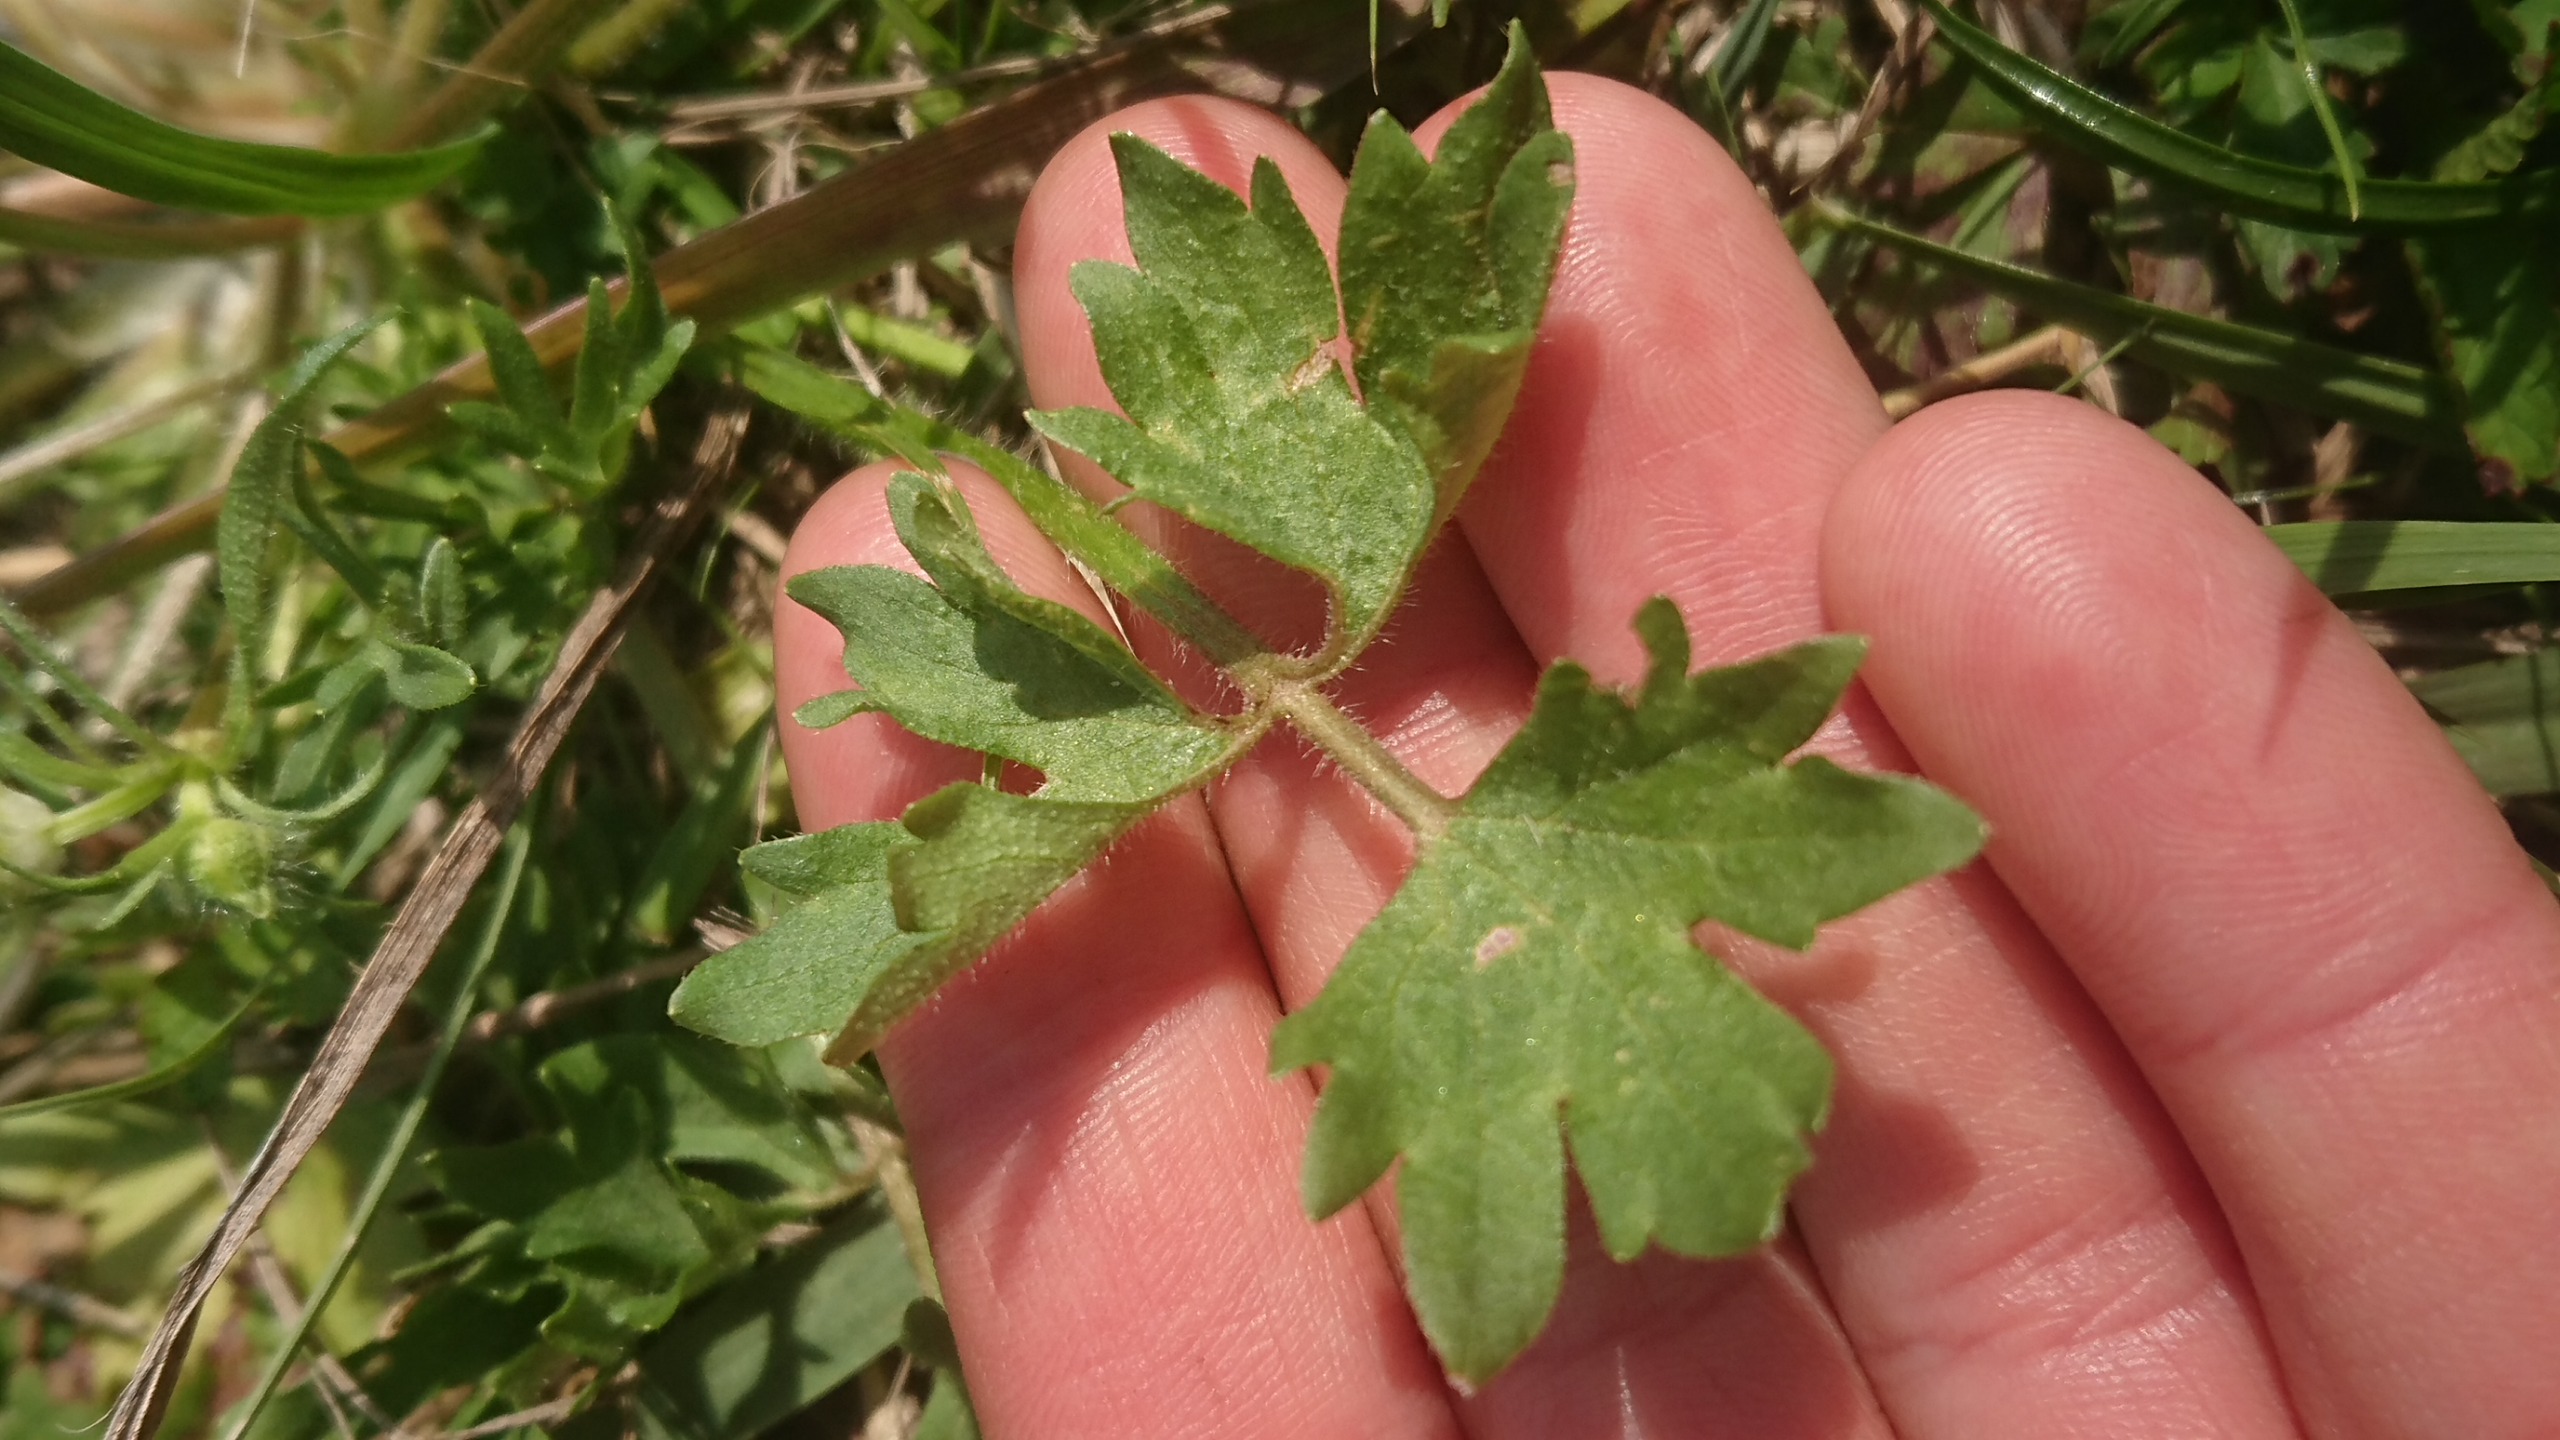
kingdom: Plantae
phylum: Tracheophyta
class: Magnoliopsida
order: Ranunculales
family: Ranunculaceae
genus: Ranunculus
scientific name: Ranunculus sardous
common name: Stivhåret ranunkel
